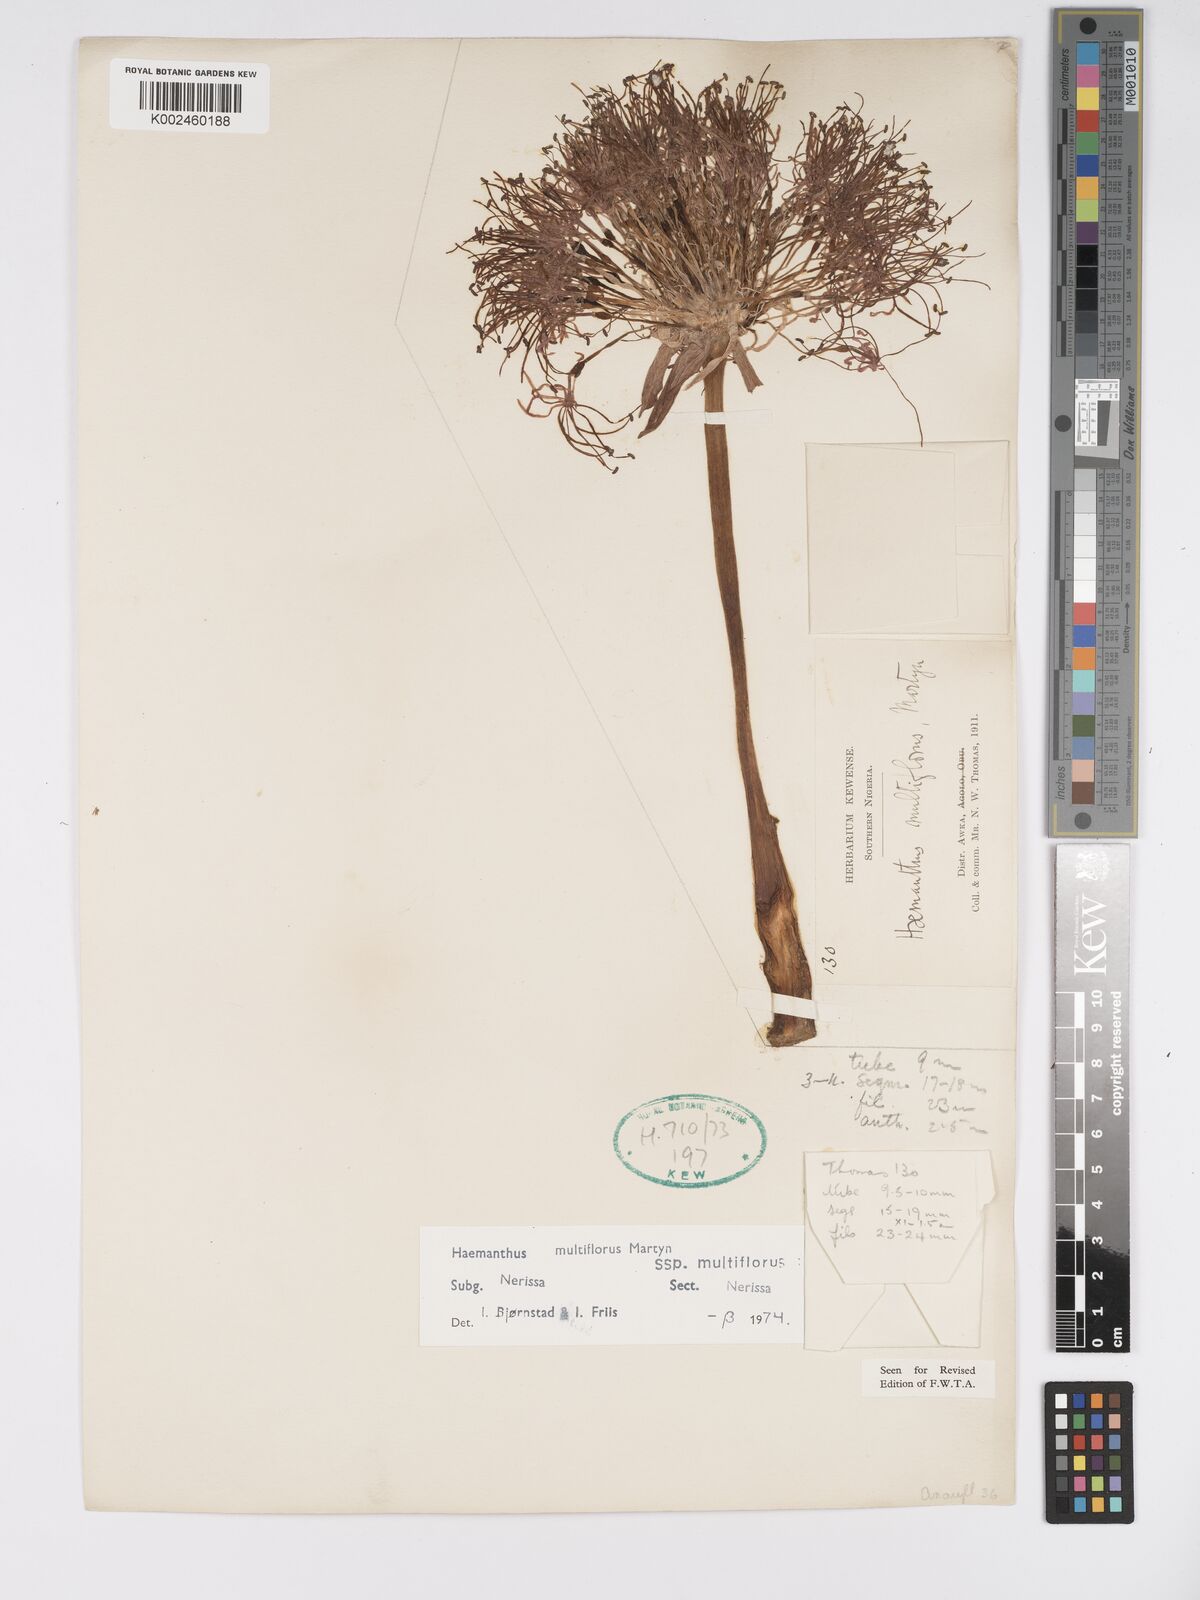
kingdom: Plantae
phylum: Tracheophyta
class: Liliopsida
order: Asparagales
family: Amaryllidaceae
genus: Scadoxus
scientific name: Scadoxus multiflorus
